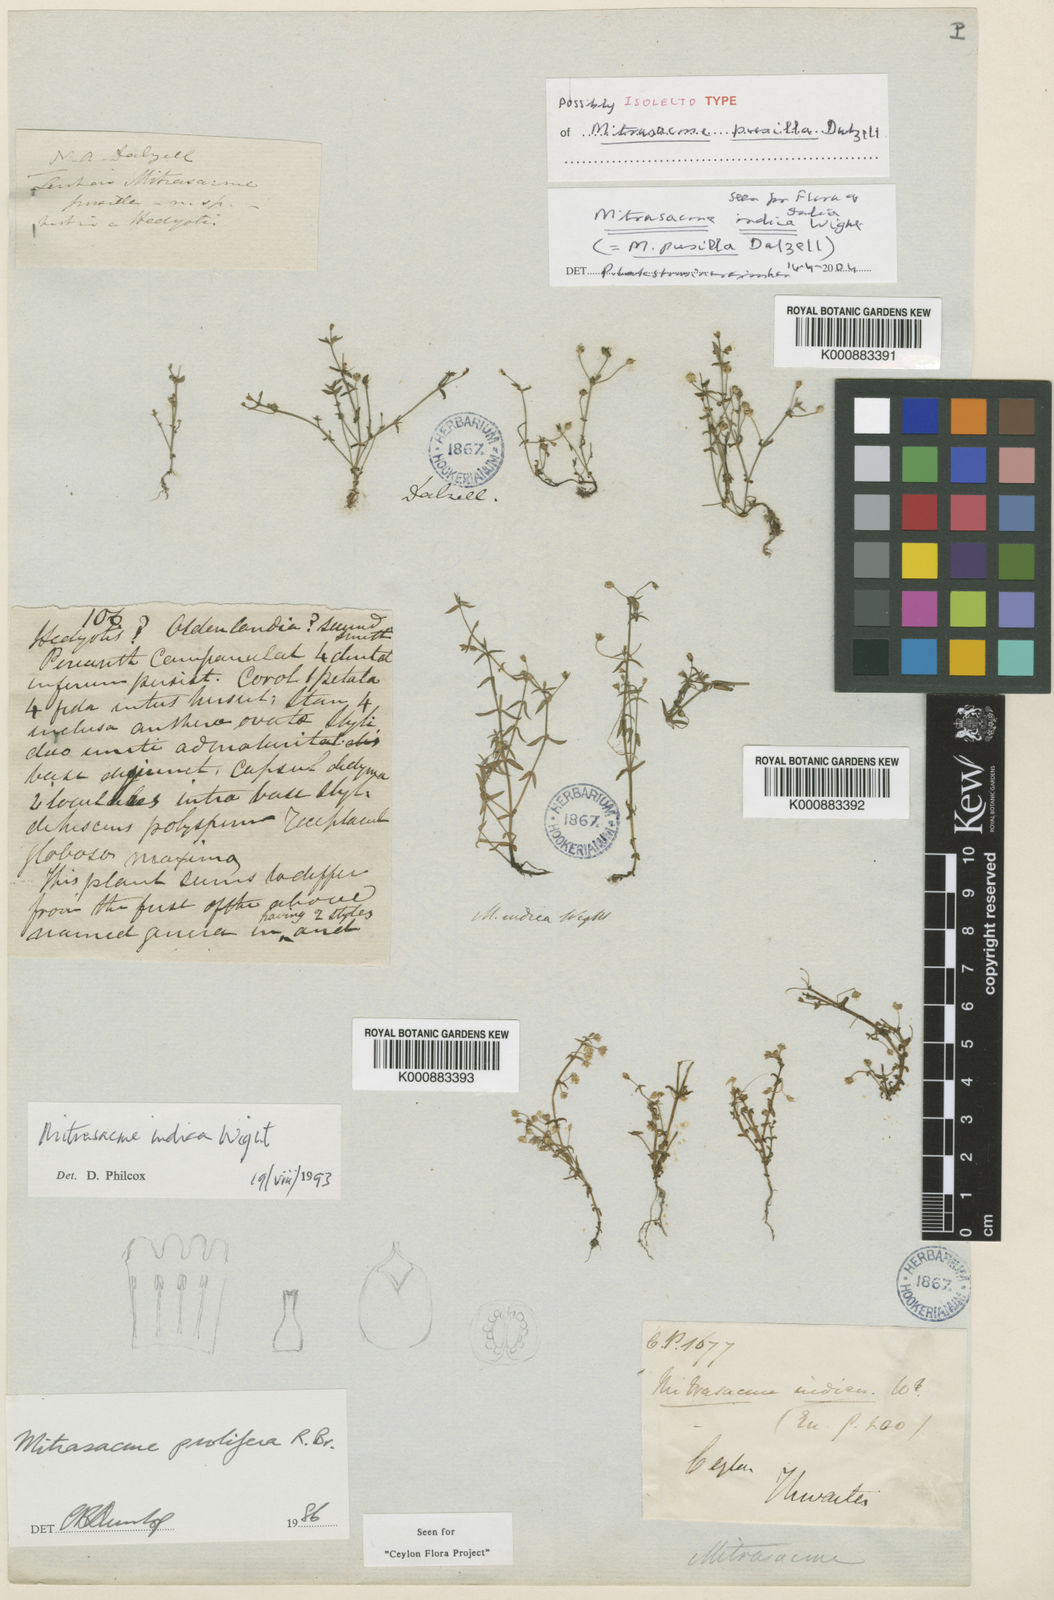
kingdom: Plantae
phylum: Tracheophyta
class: Magnoliopsida
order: Gentianales
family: Loganiaceae
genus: Mitrasacme
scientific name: Mitrasacme prolifera
